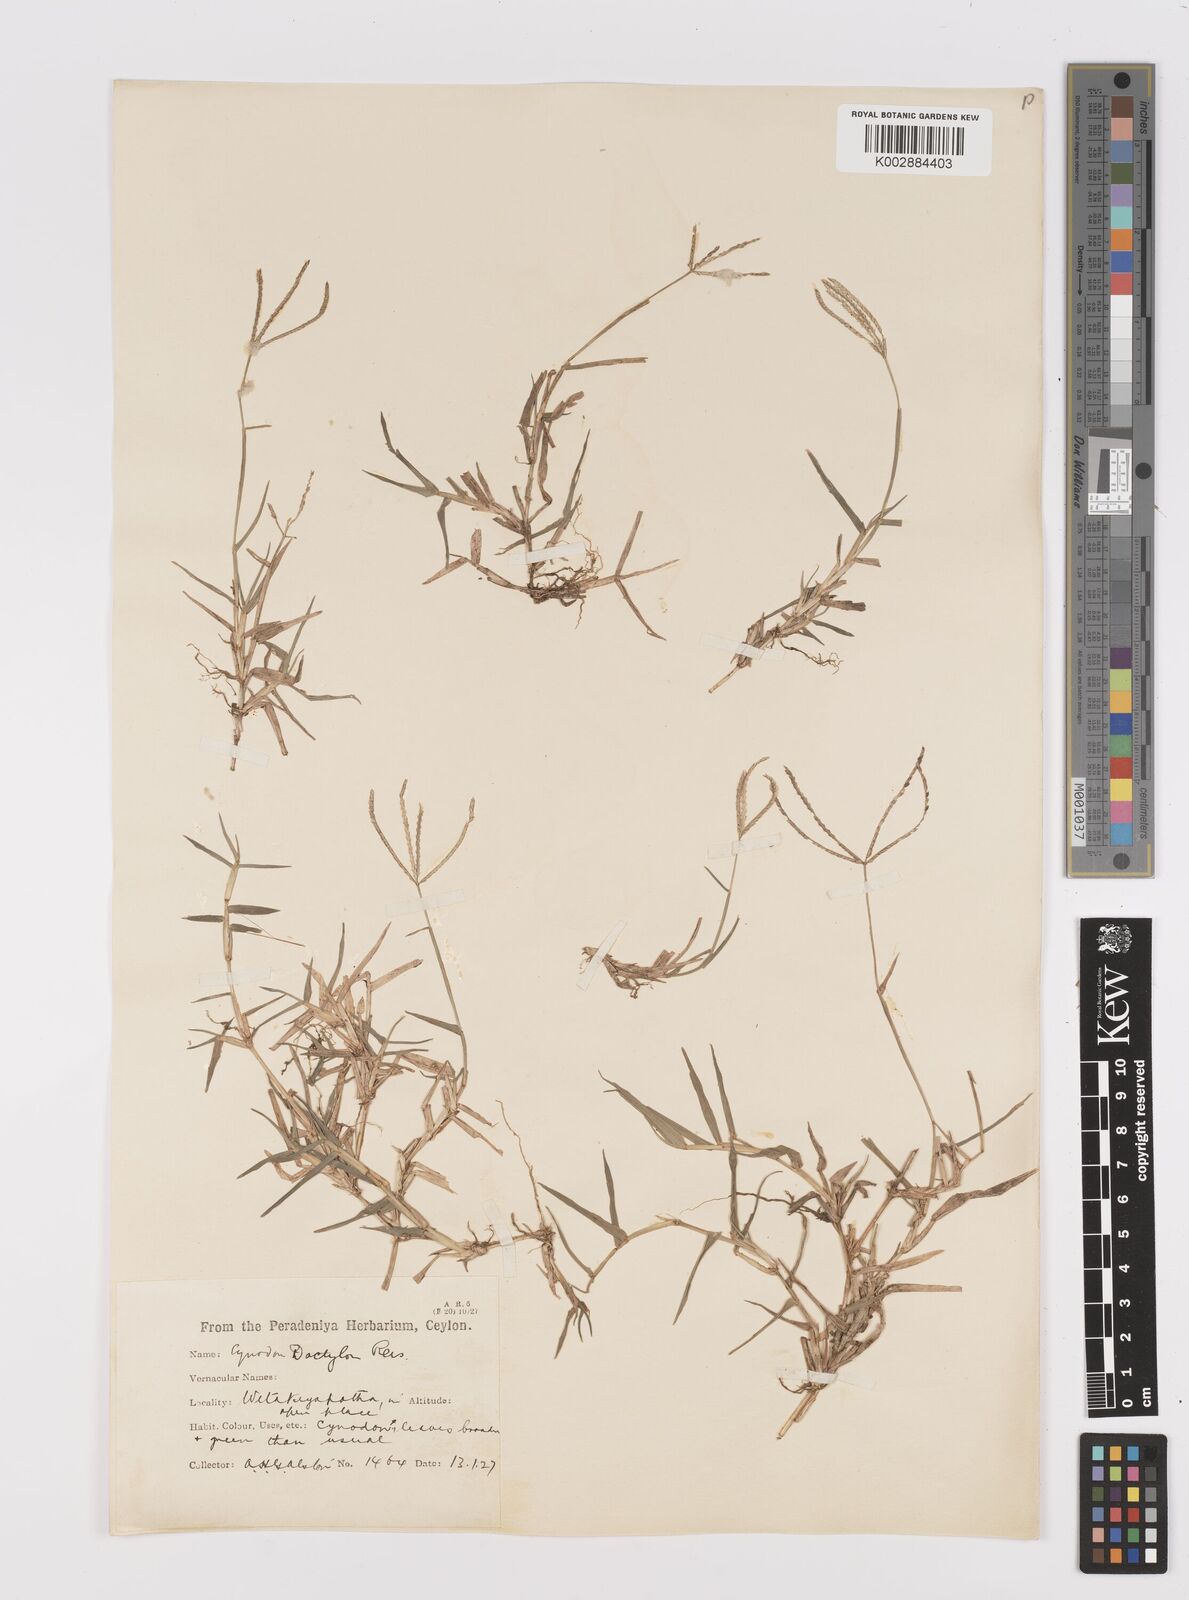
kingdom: Plantae
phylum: Tracheophyta
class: Liliopsida
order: Poales
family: Poaceae
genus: Cynodon
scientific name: Cynodon dactylon
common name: Bermuda grass
